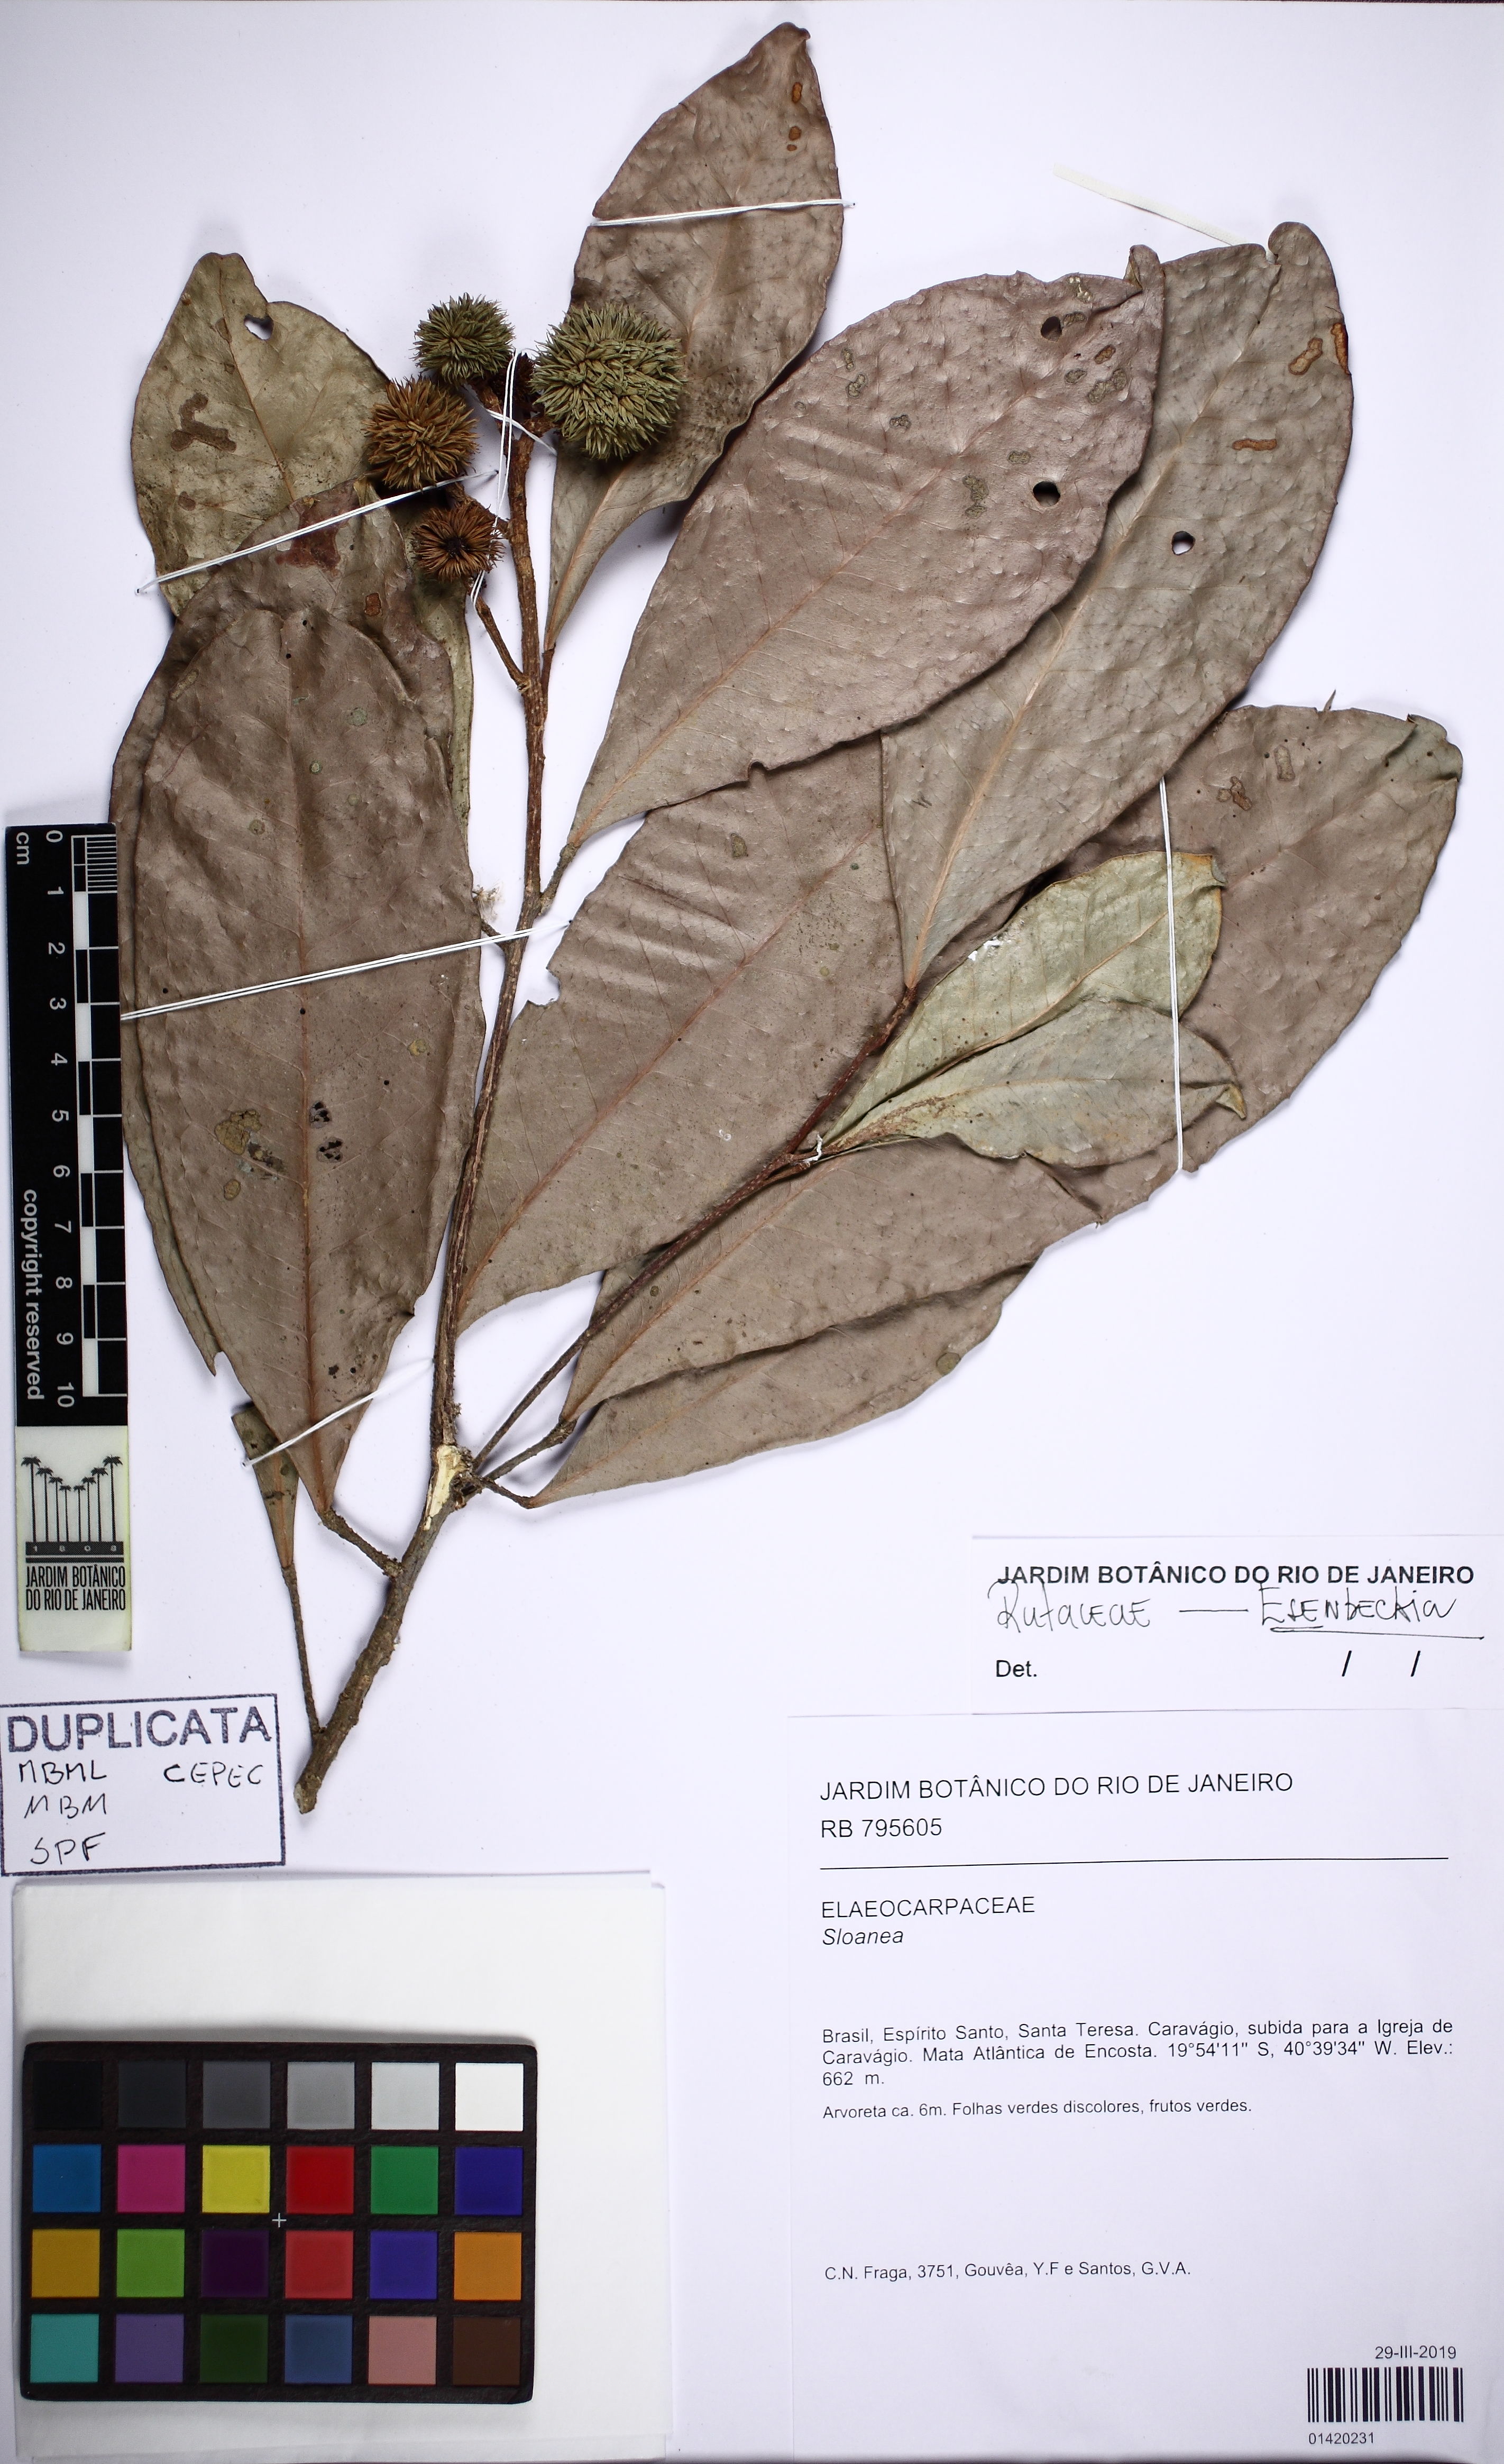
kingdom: Plantae
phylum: Tracheophyta
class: Magnoliopsida
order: Oxalidales
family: Elaeocarpaceae
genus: Sloanea
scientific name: Sloanea
